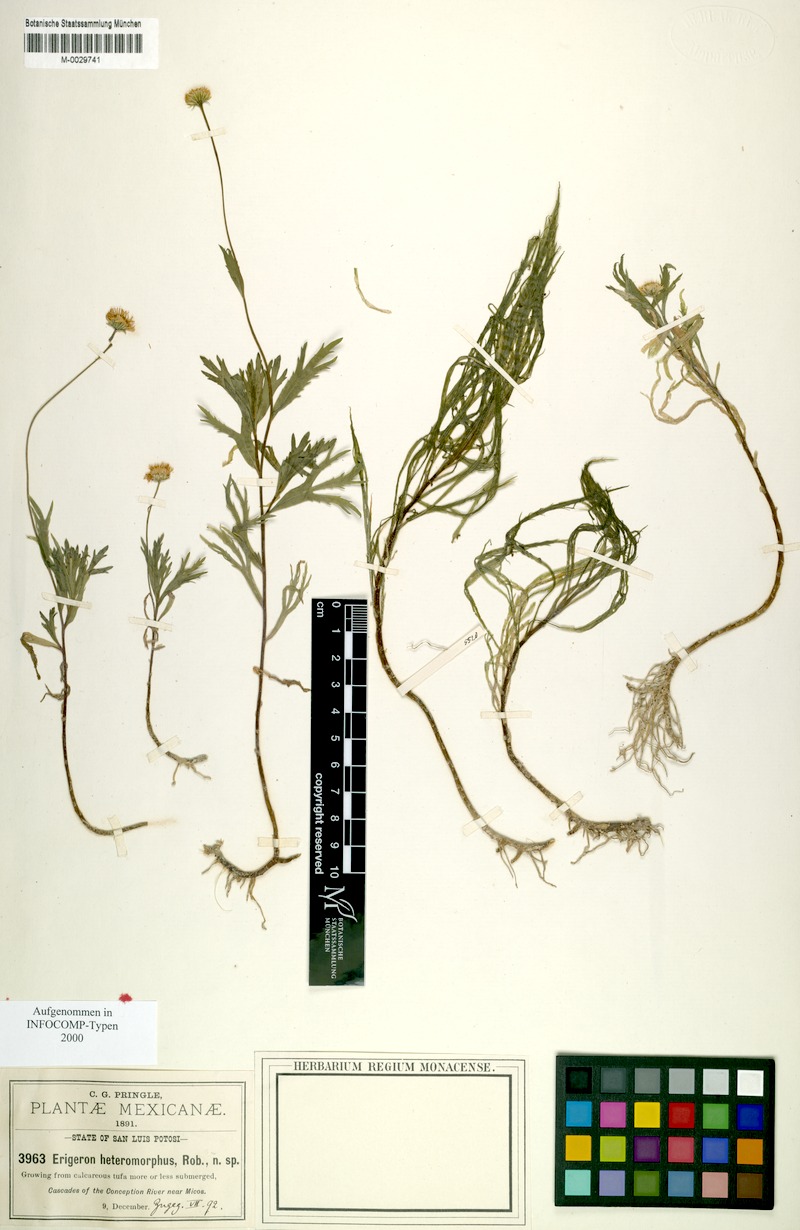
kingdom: Plantae
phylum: Tracheophyta
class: Magnoliopsida
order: Asterales
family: Asteraceae
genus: Erigeron
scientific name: Erigeron heteromorphus
